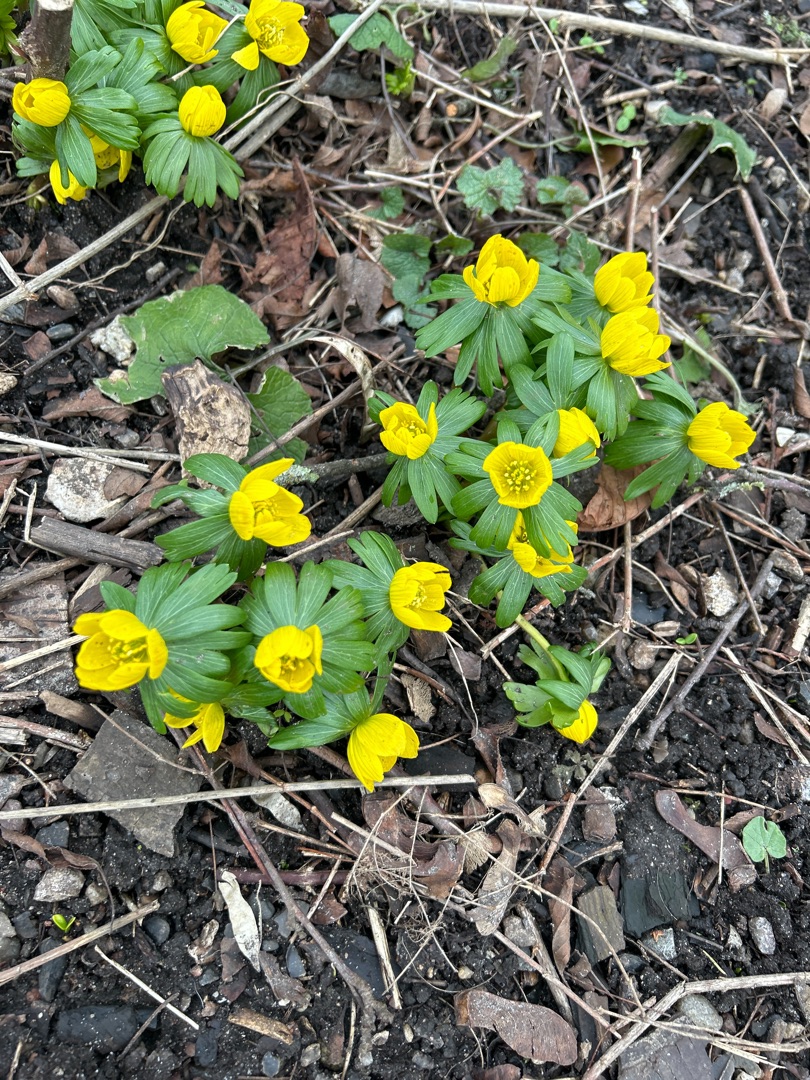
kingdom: Plantae
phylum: Tracheophyta
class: Magnoliopsida
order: Ranunculales
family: Ranunculaceae
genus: Eranthis
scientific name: Eranthis hyemalis
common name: Erantis
